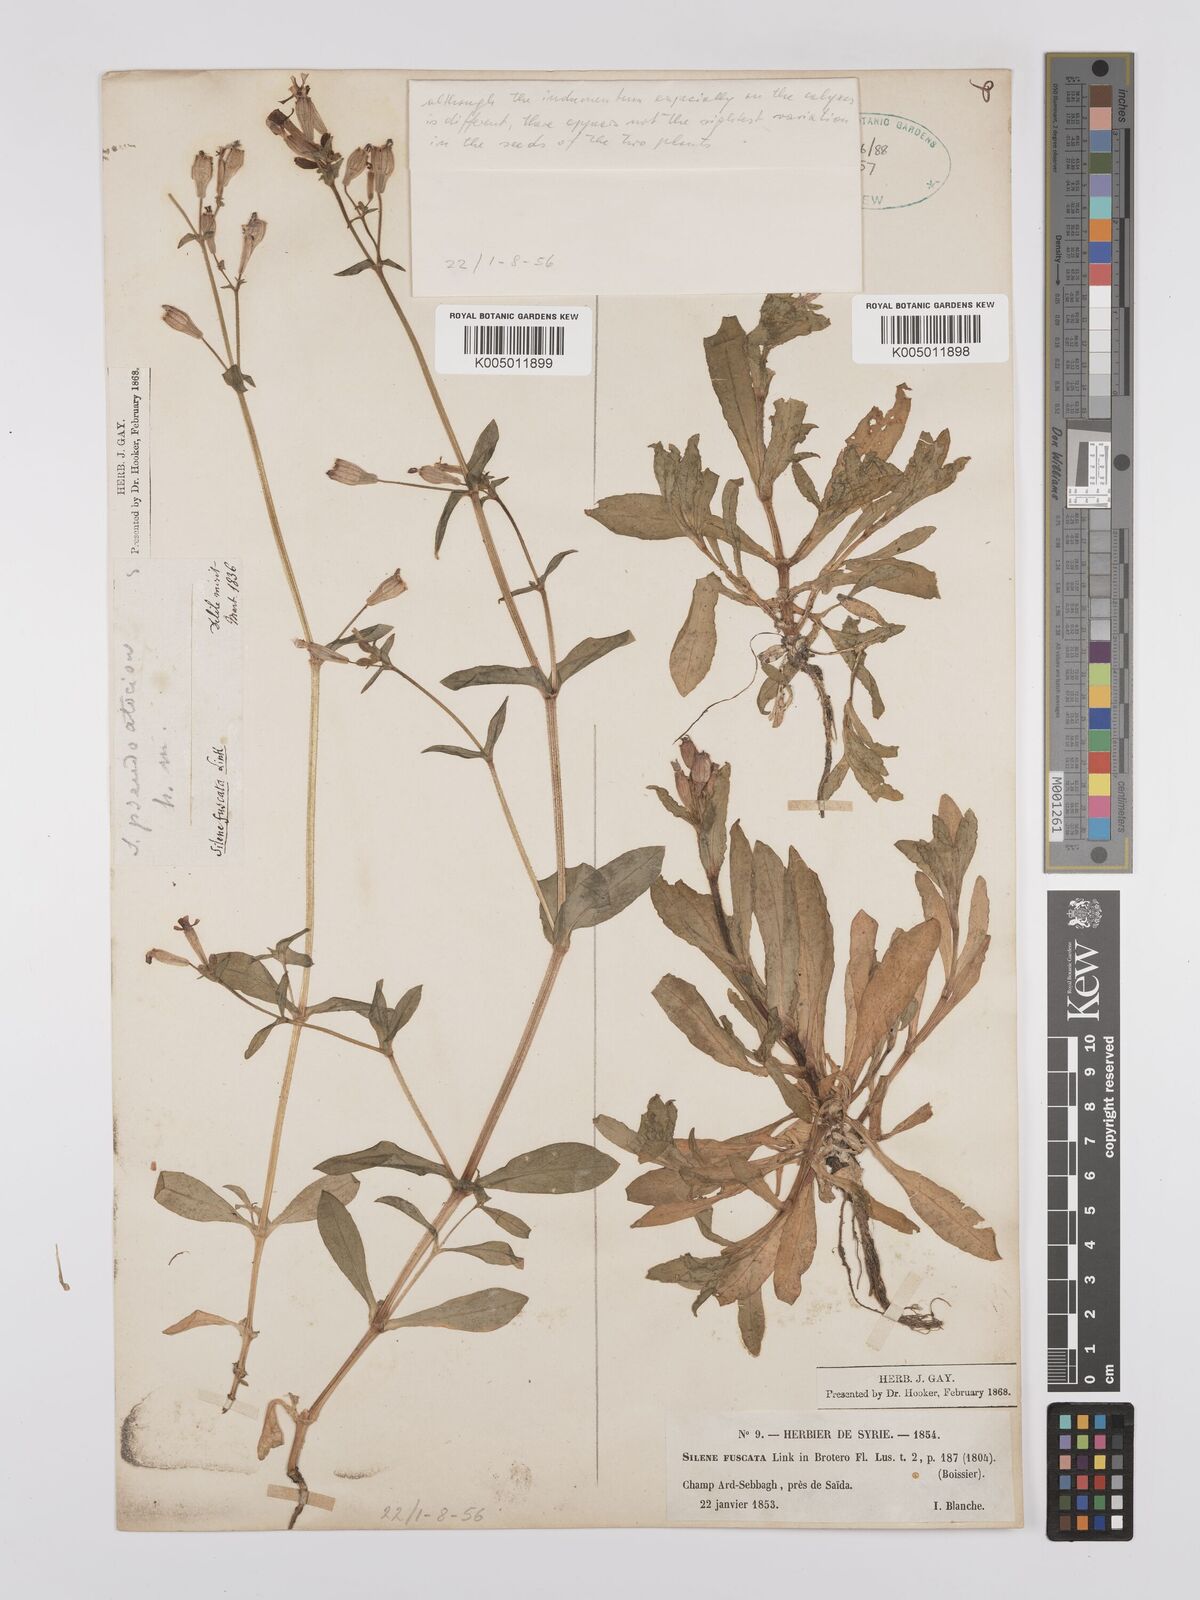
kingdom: Plantae
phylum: Tracheophyta
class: Magnoliopsida
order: Caryophyllales
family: Caryophyllaceae
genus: Silene
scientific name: Silene fuscata
